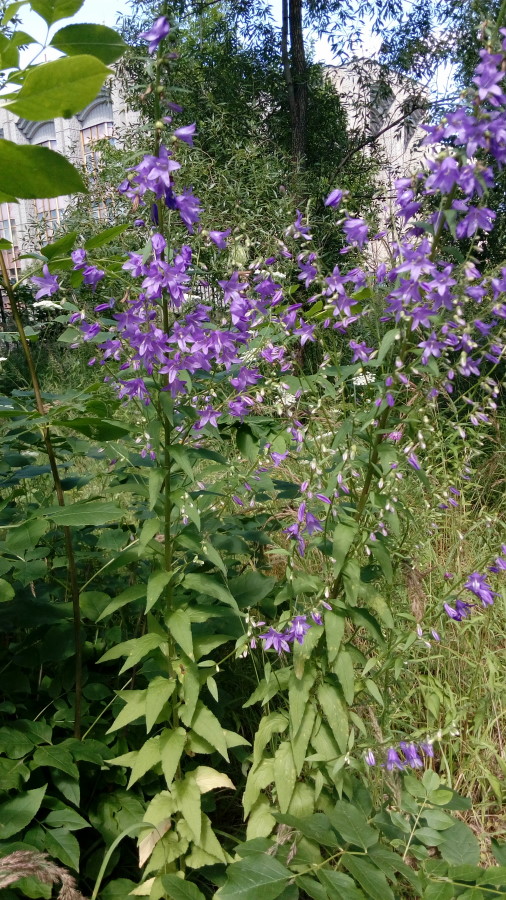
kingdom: Plantae
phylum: Tracheophyta
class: Magnoliopsida
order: Asterales
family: Campanulaceae
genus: Campanula
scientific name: Campanula trachelium
